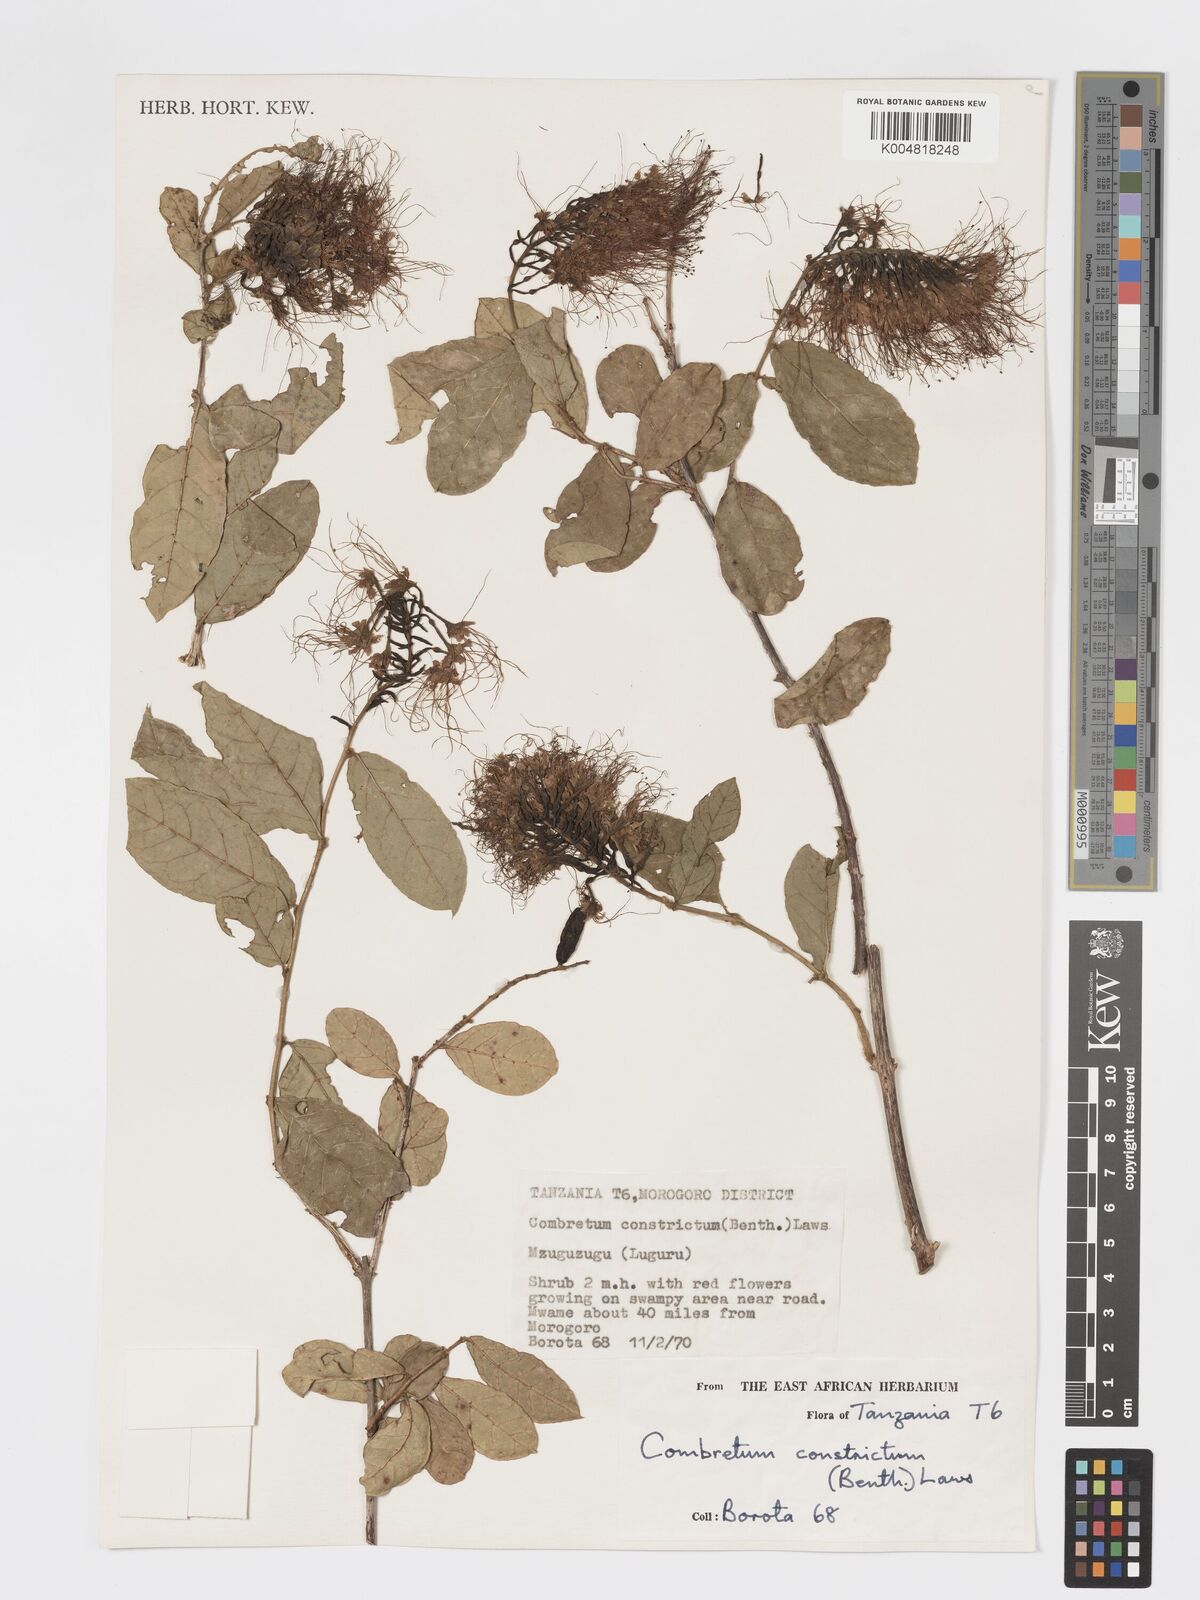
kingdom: Plantae
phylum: Tracheophyta
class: Magnoliopsida
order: Myrtales
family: Combretaceae
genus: Combretum
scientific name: Combretum constrictum
